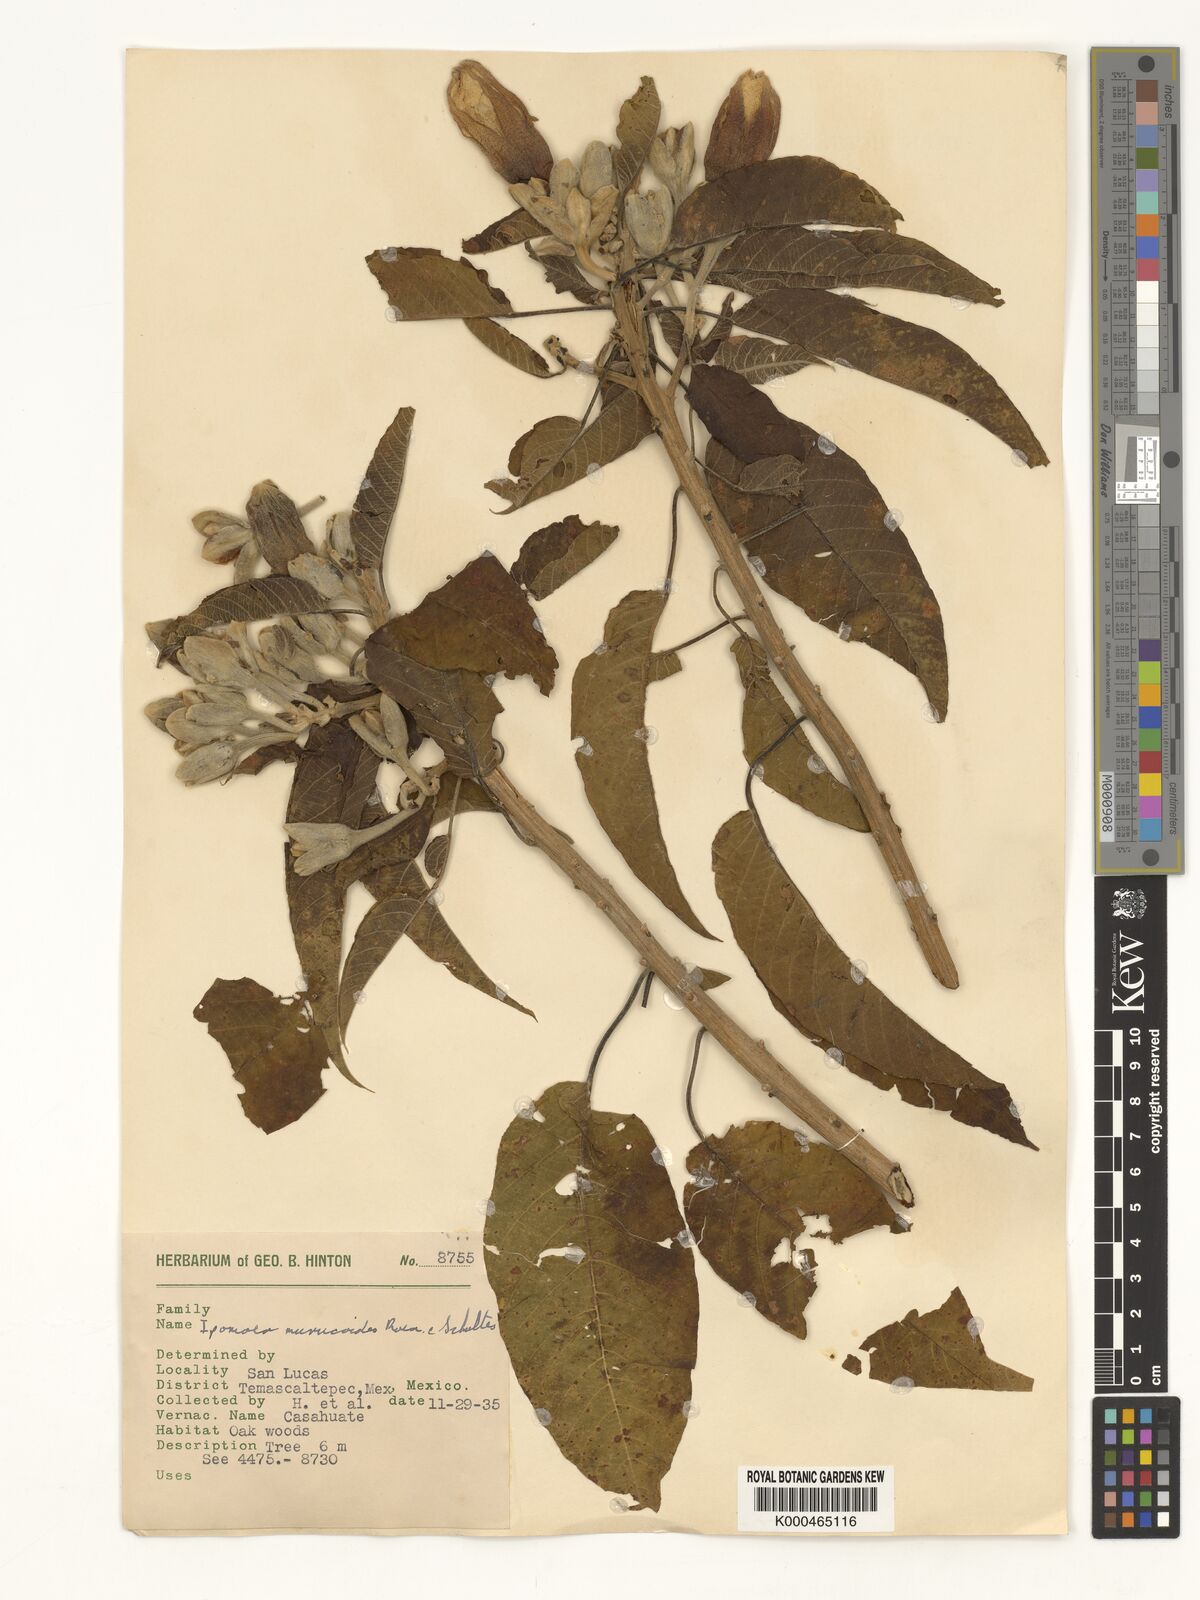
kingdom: Plantae
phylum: Tracheophyta
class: Magnoliopsida
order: Solanales
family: Convolvulaceae
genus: Ipomoea
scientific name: Ipomoea murucoides
